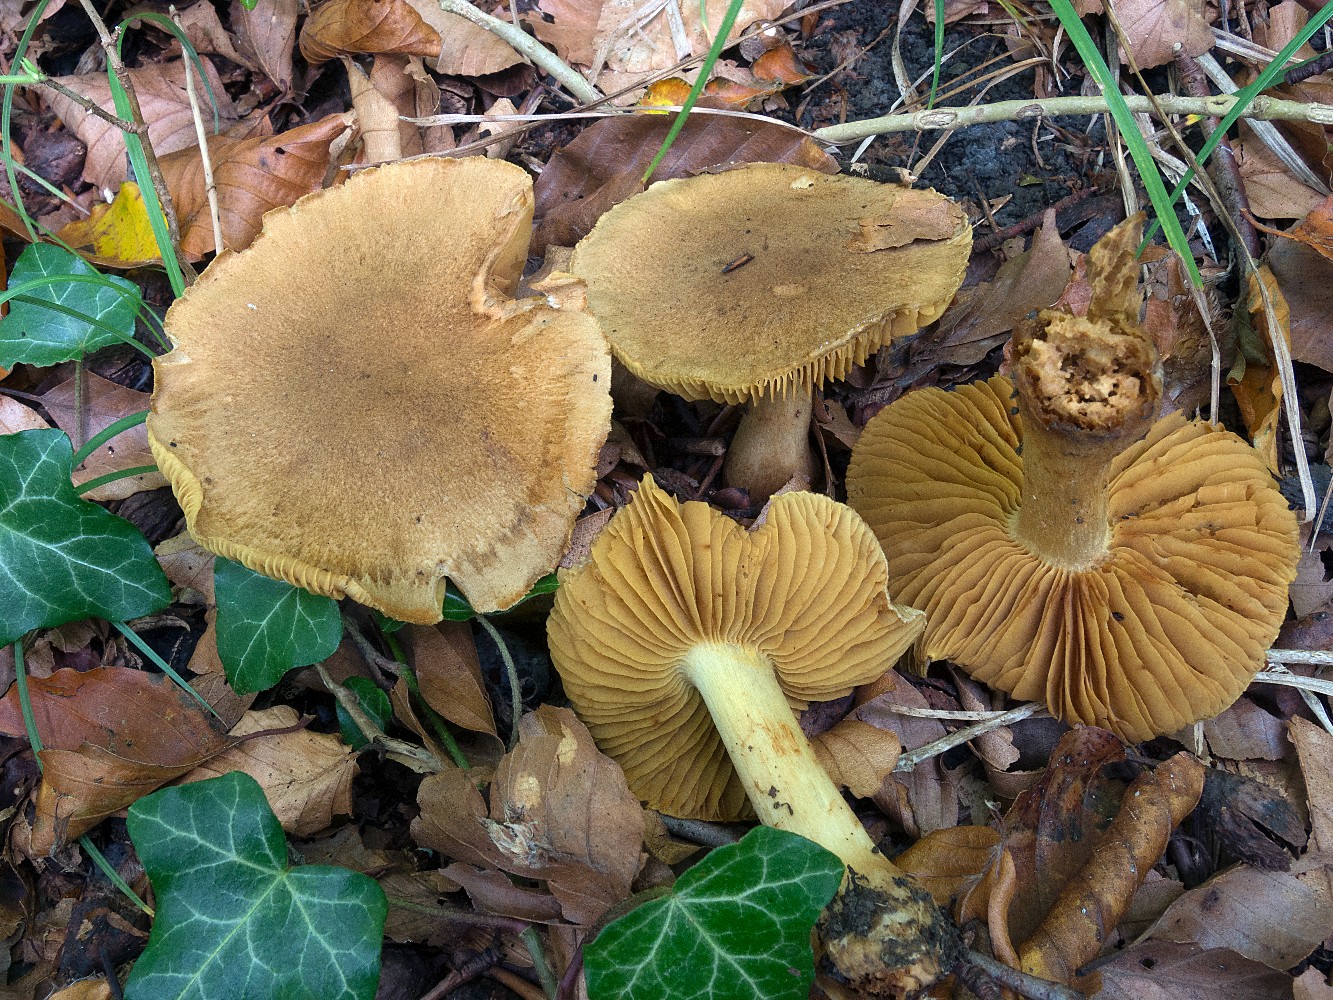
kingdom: Fungi
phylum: Basidiomycota
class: Agaricomycetes
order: Agaricales
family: Cortinariaceae
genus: Cortinarius
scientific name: Cortinarius cotoneus
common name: ulden slørhat
